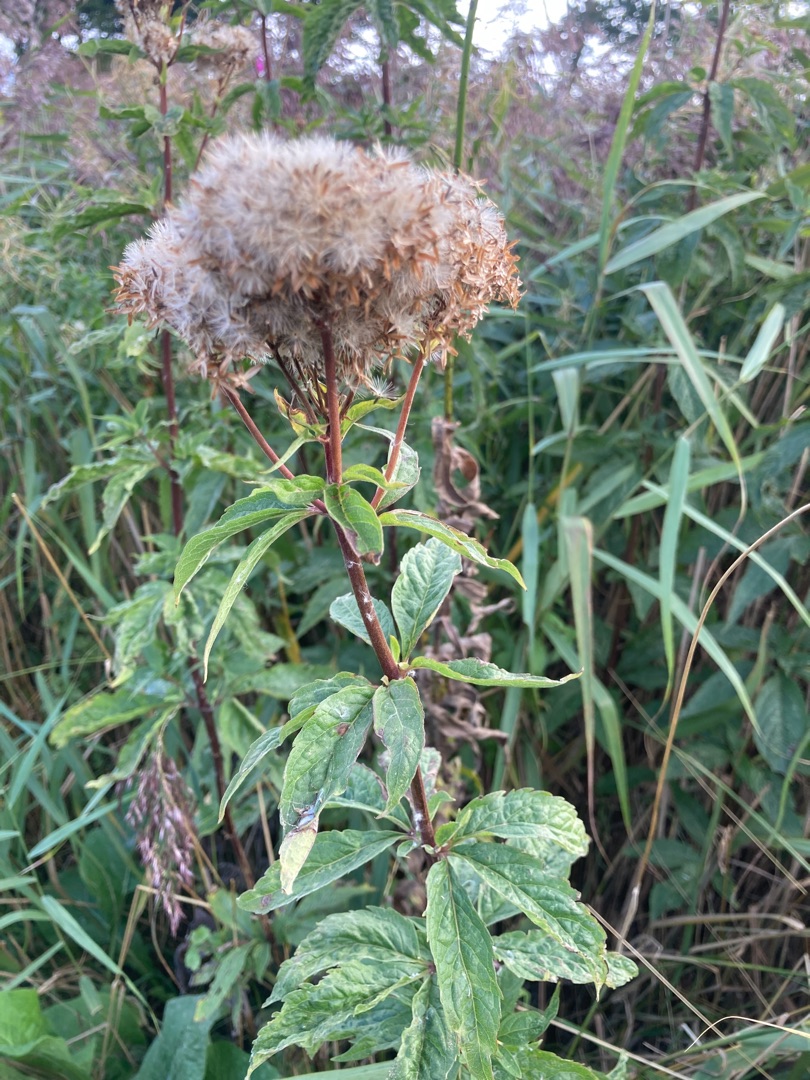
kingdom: Plantae
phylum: Tracheophyta
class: Magnoliopsida
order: Asterales
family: Asteraceae
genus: Eupatorium
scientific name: Eupatorium cannabinum
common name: Hjortetrøst
